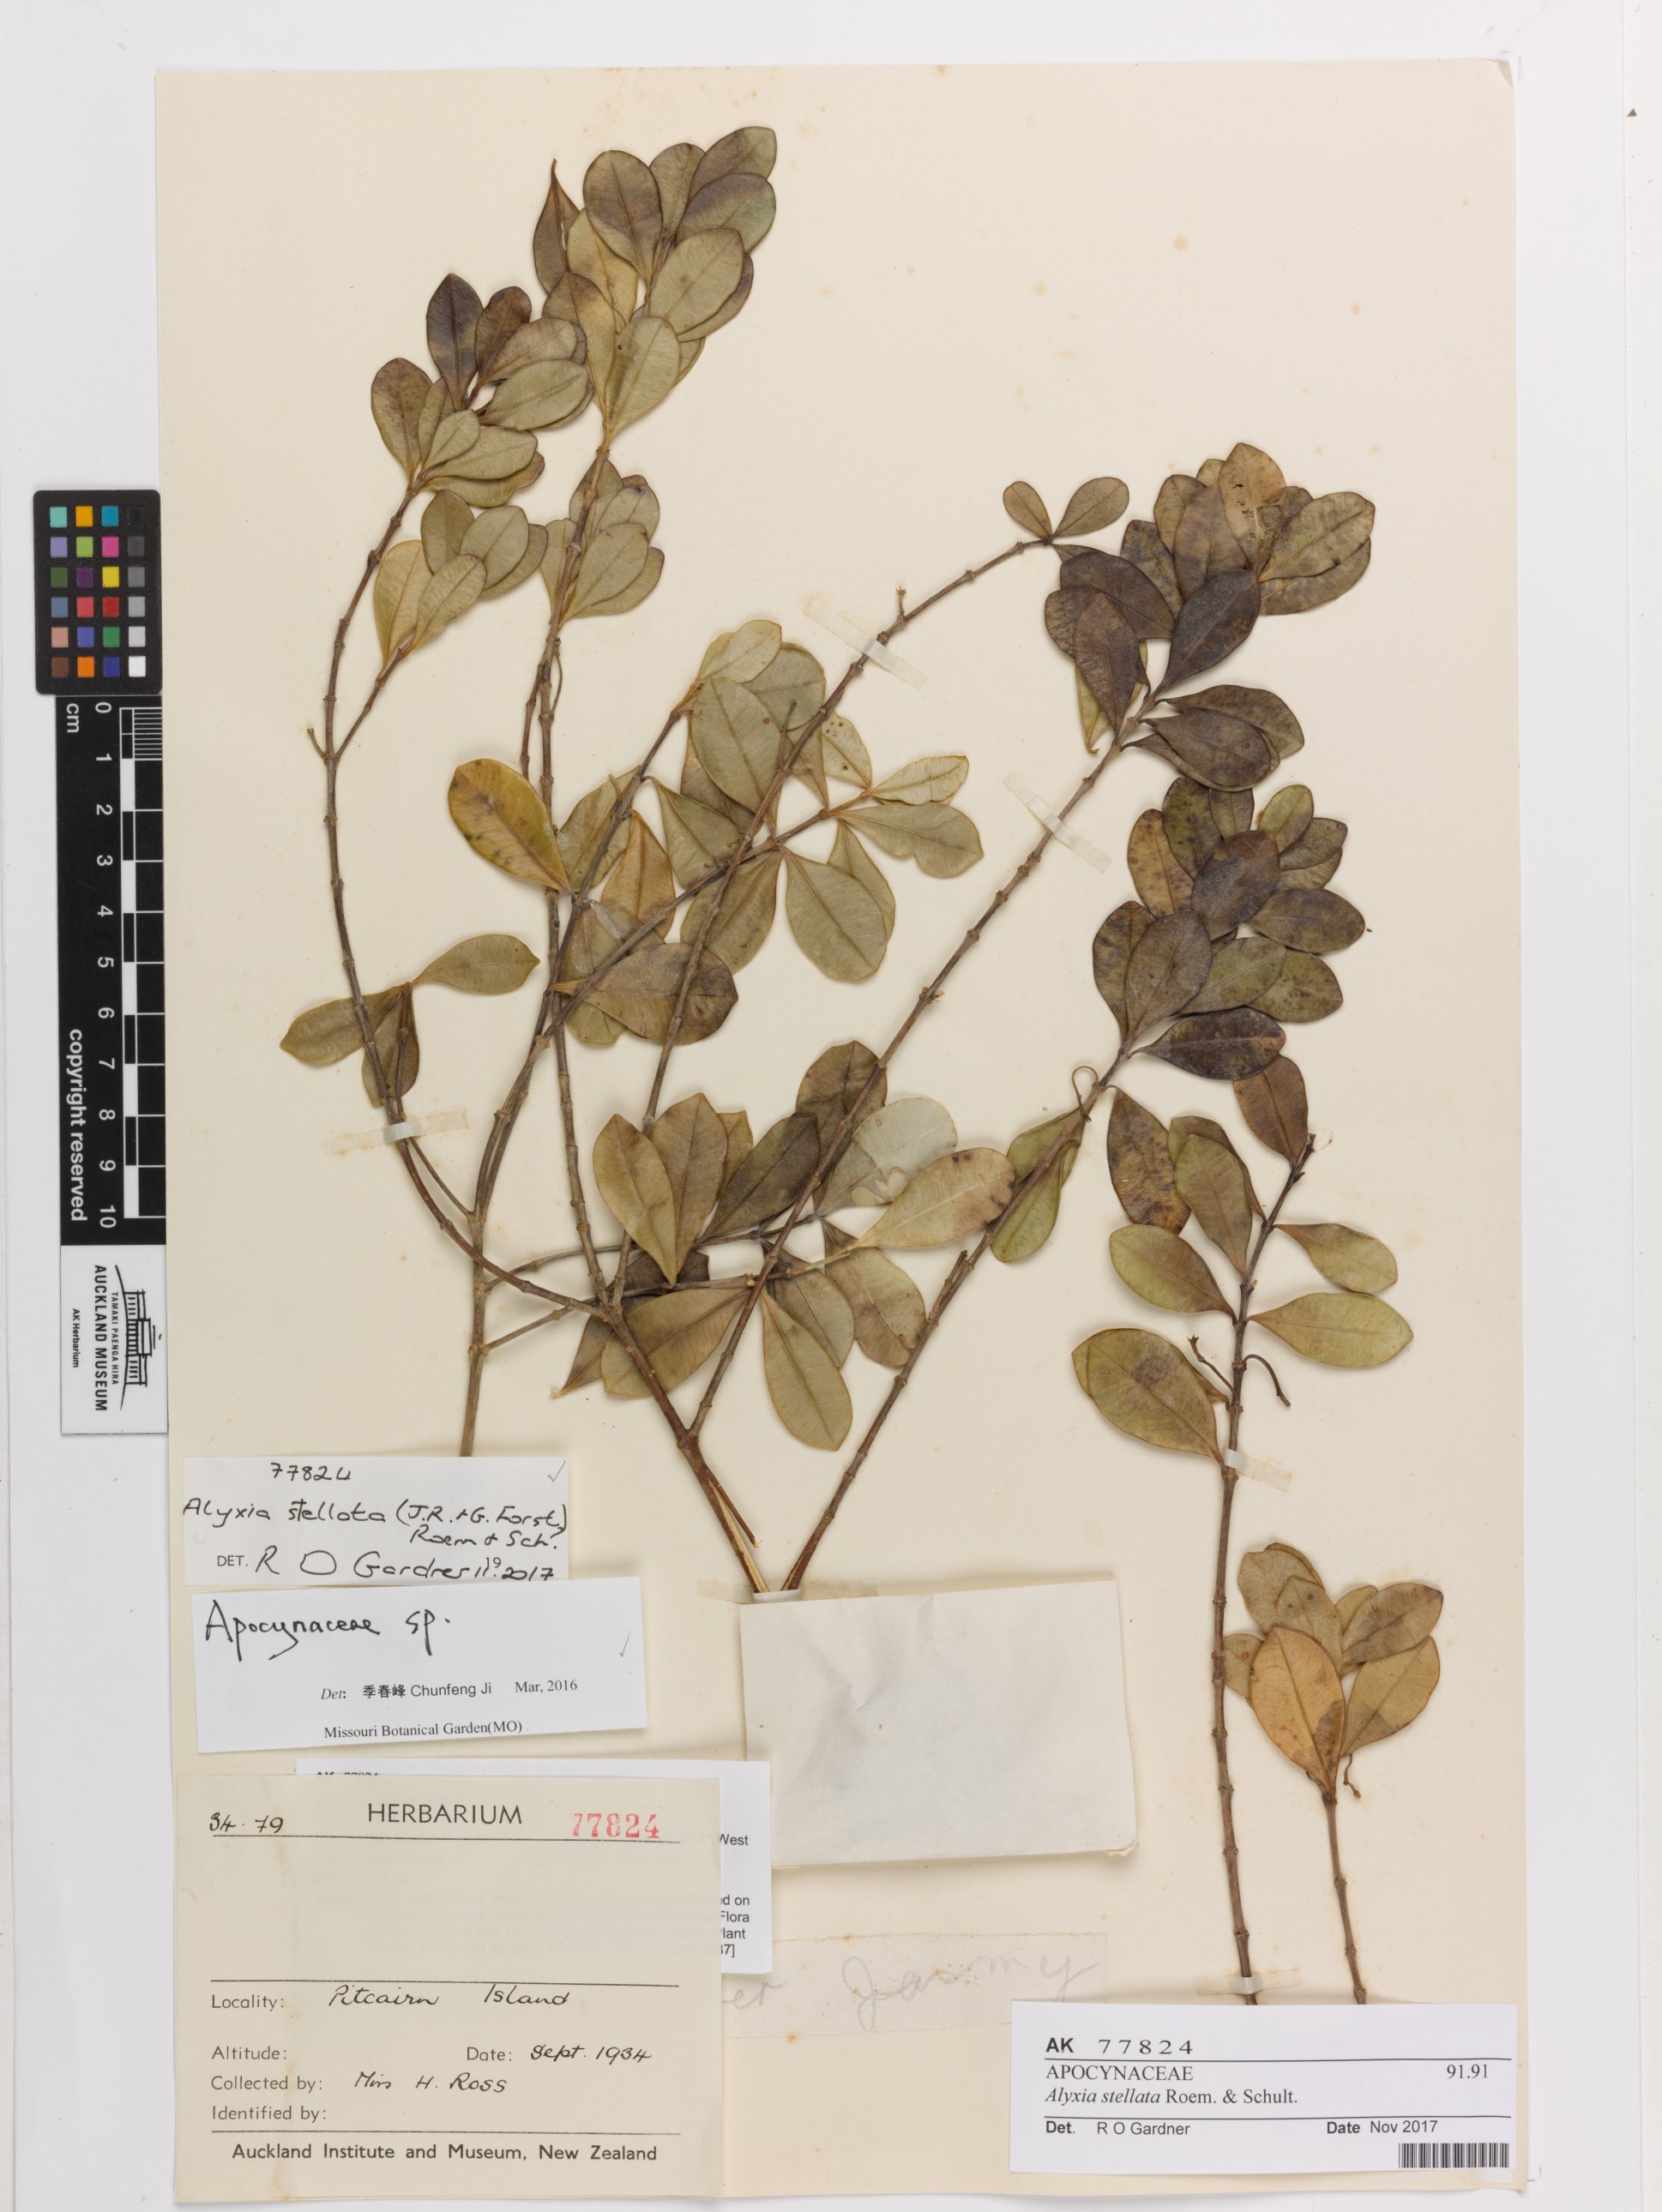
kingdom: Plantae
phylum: Tracheophyta
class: Magnoliopsida
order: Gentianales
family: Apocynaceae
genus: Alyxia
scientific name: Alyxia stellata
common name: Maile
